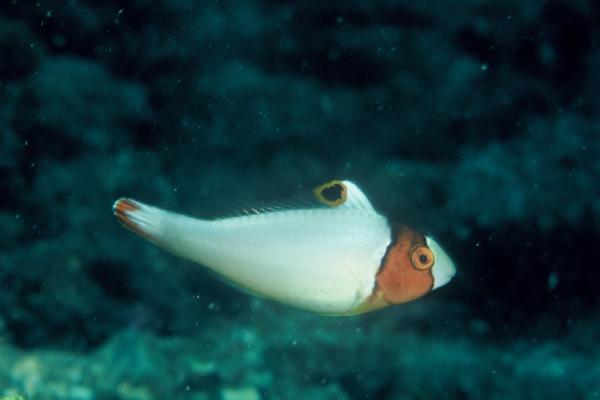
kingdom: Animalia
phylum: Chordata
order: Perciformes
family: Scaridae
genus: Cetoscarus
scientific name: Cetoscarus bicolor
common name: Bicolour parrotfish
